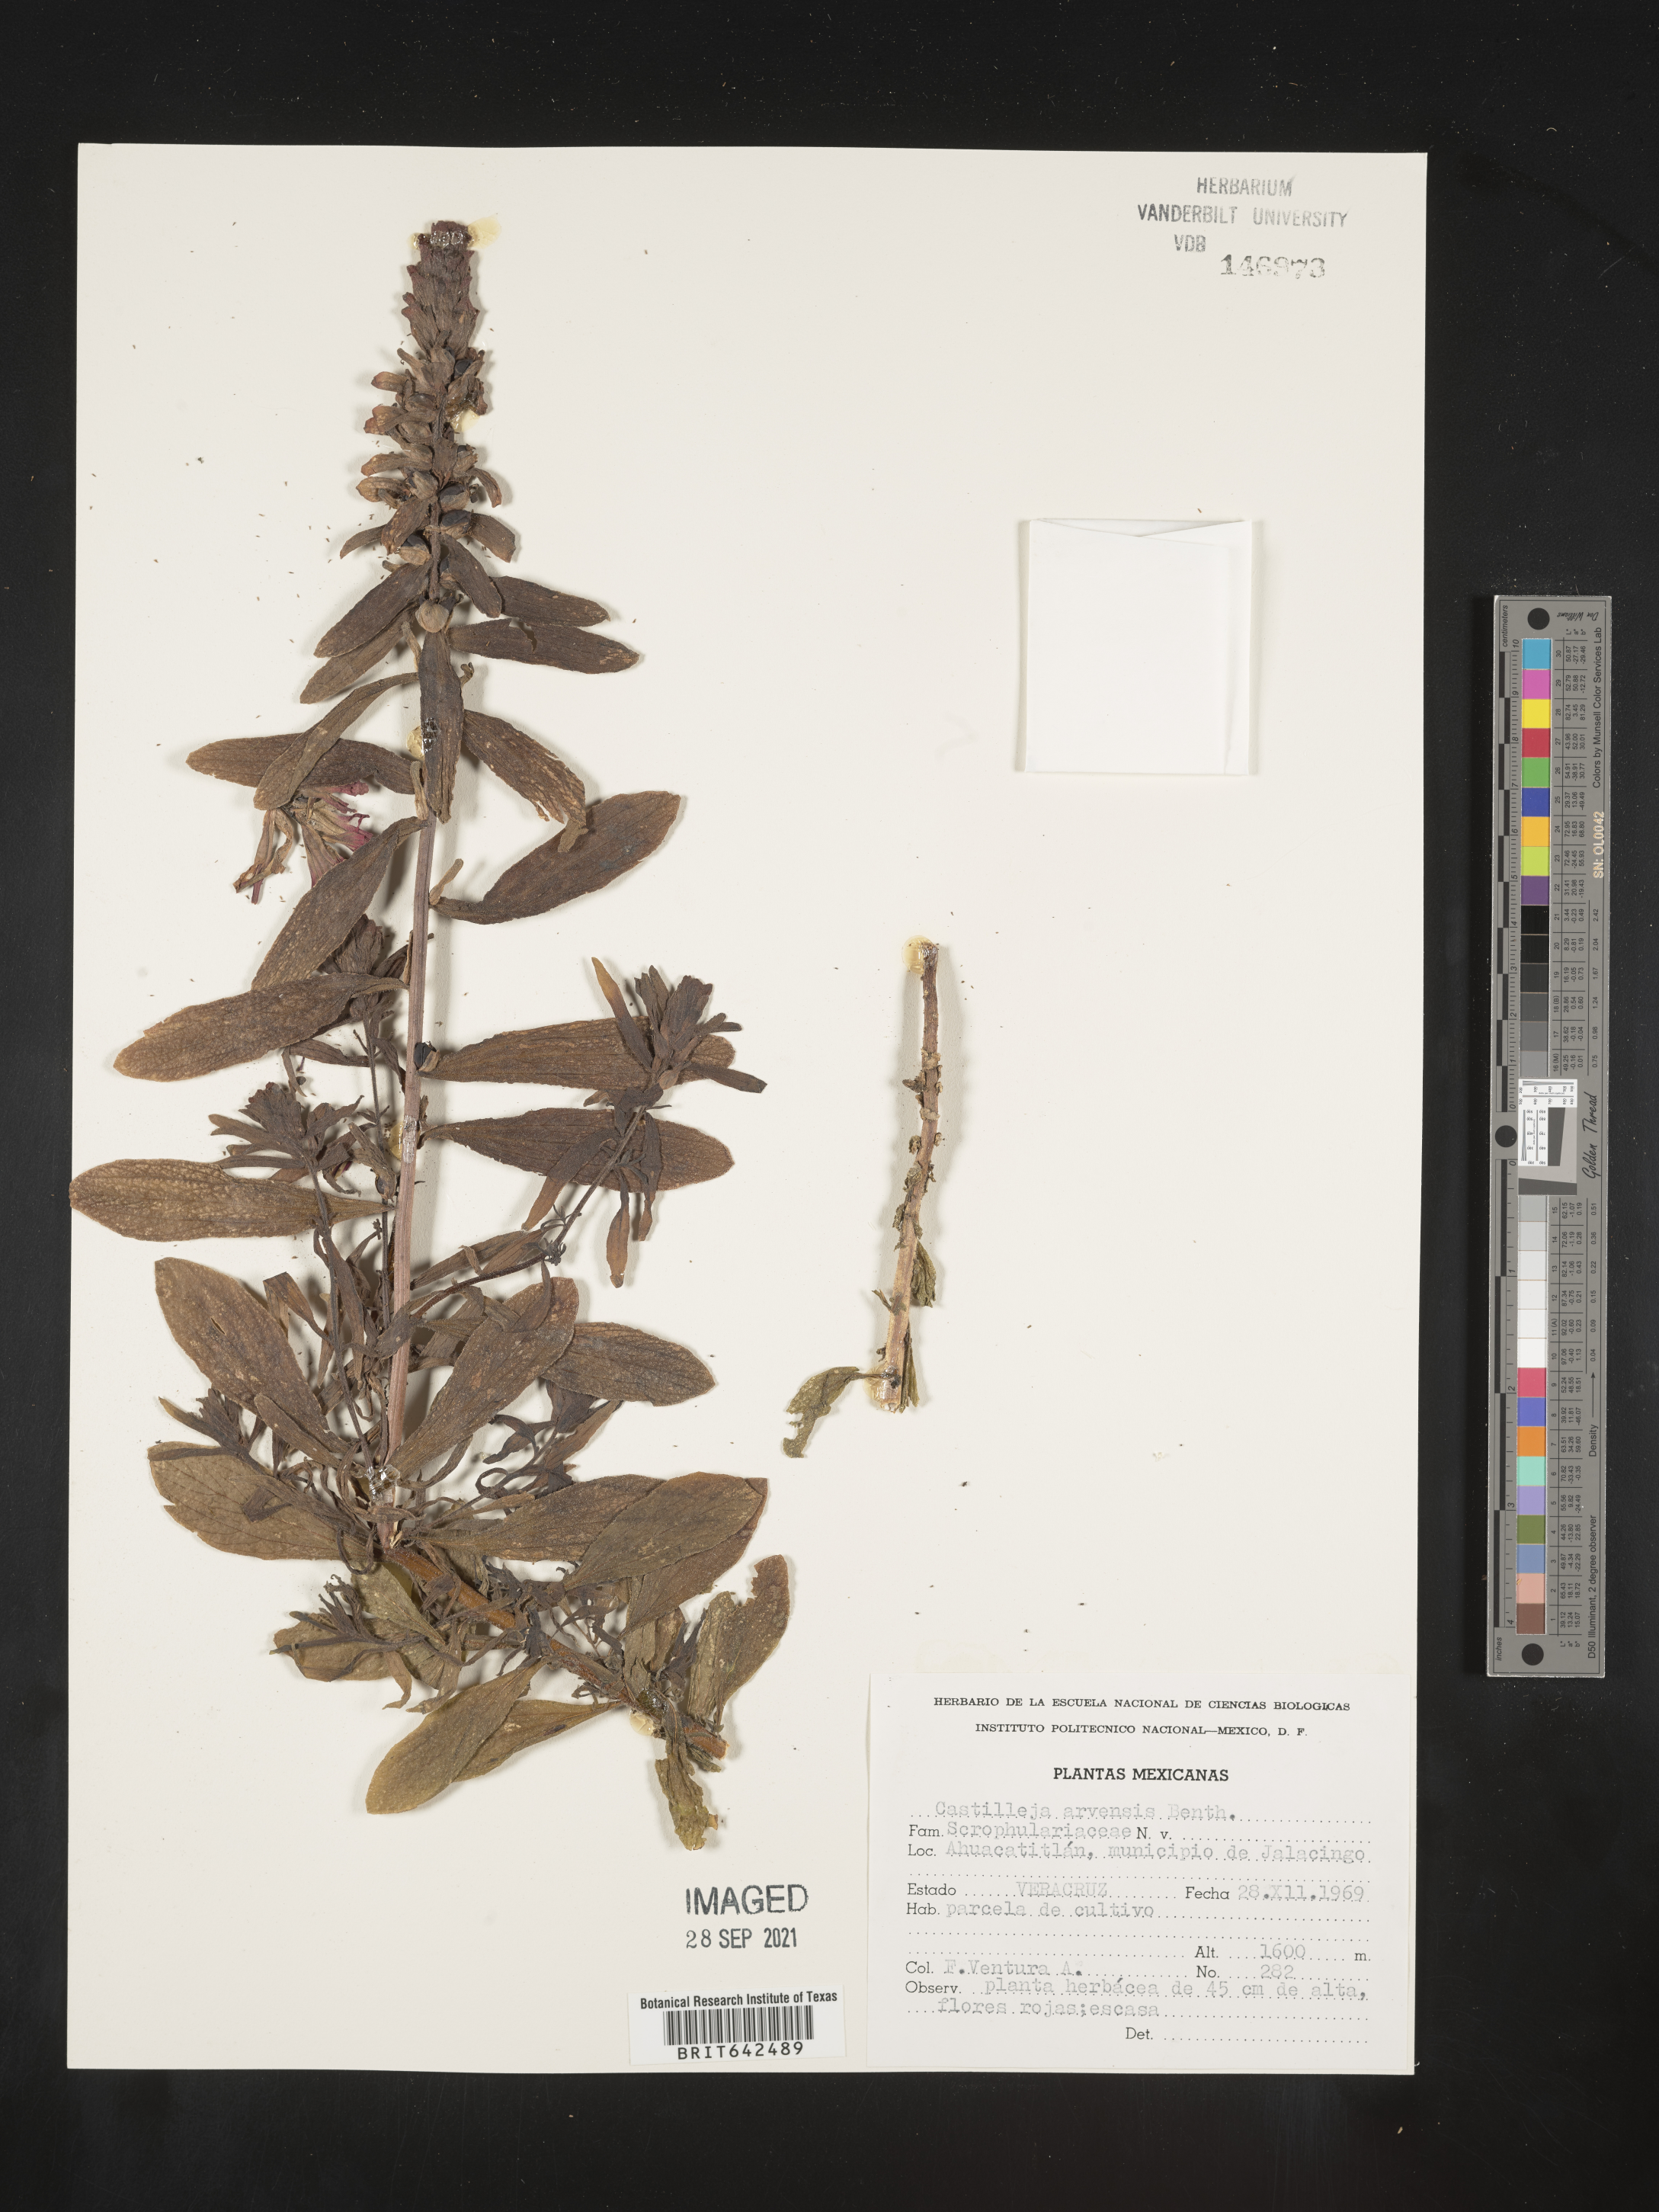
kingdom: Plantae
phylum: Tracheophyta
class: Magnoliopsida
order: Lamiales
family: Orobanchaceae
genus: Castilleja
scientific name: Castilleja
